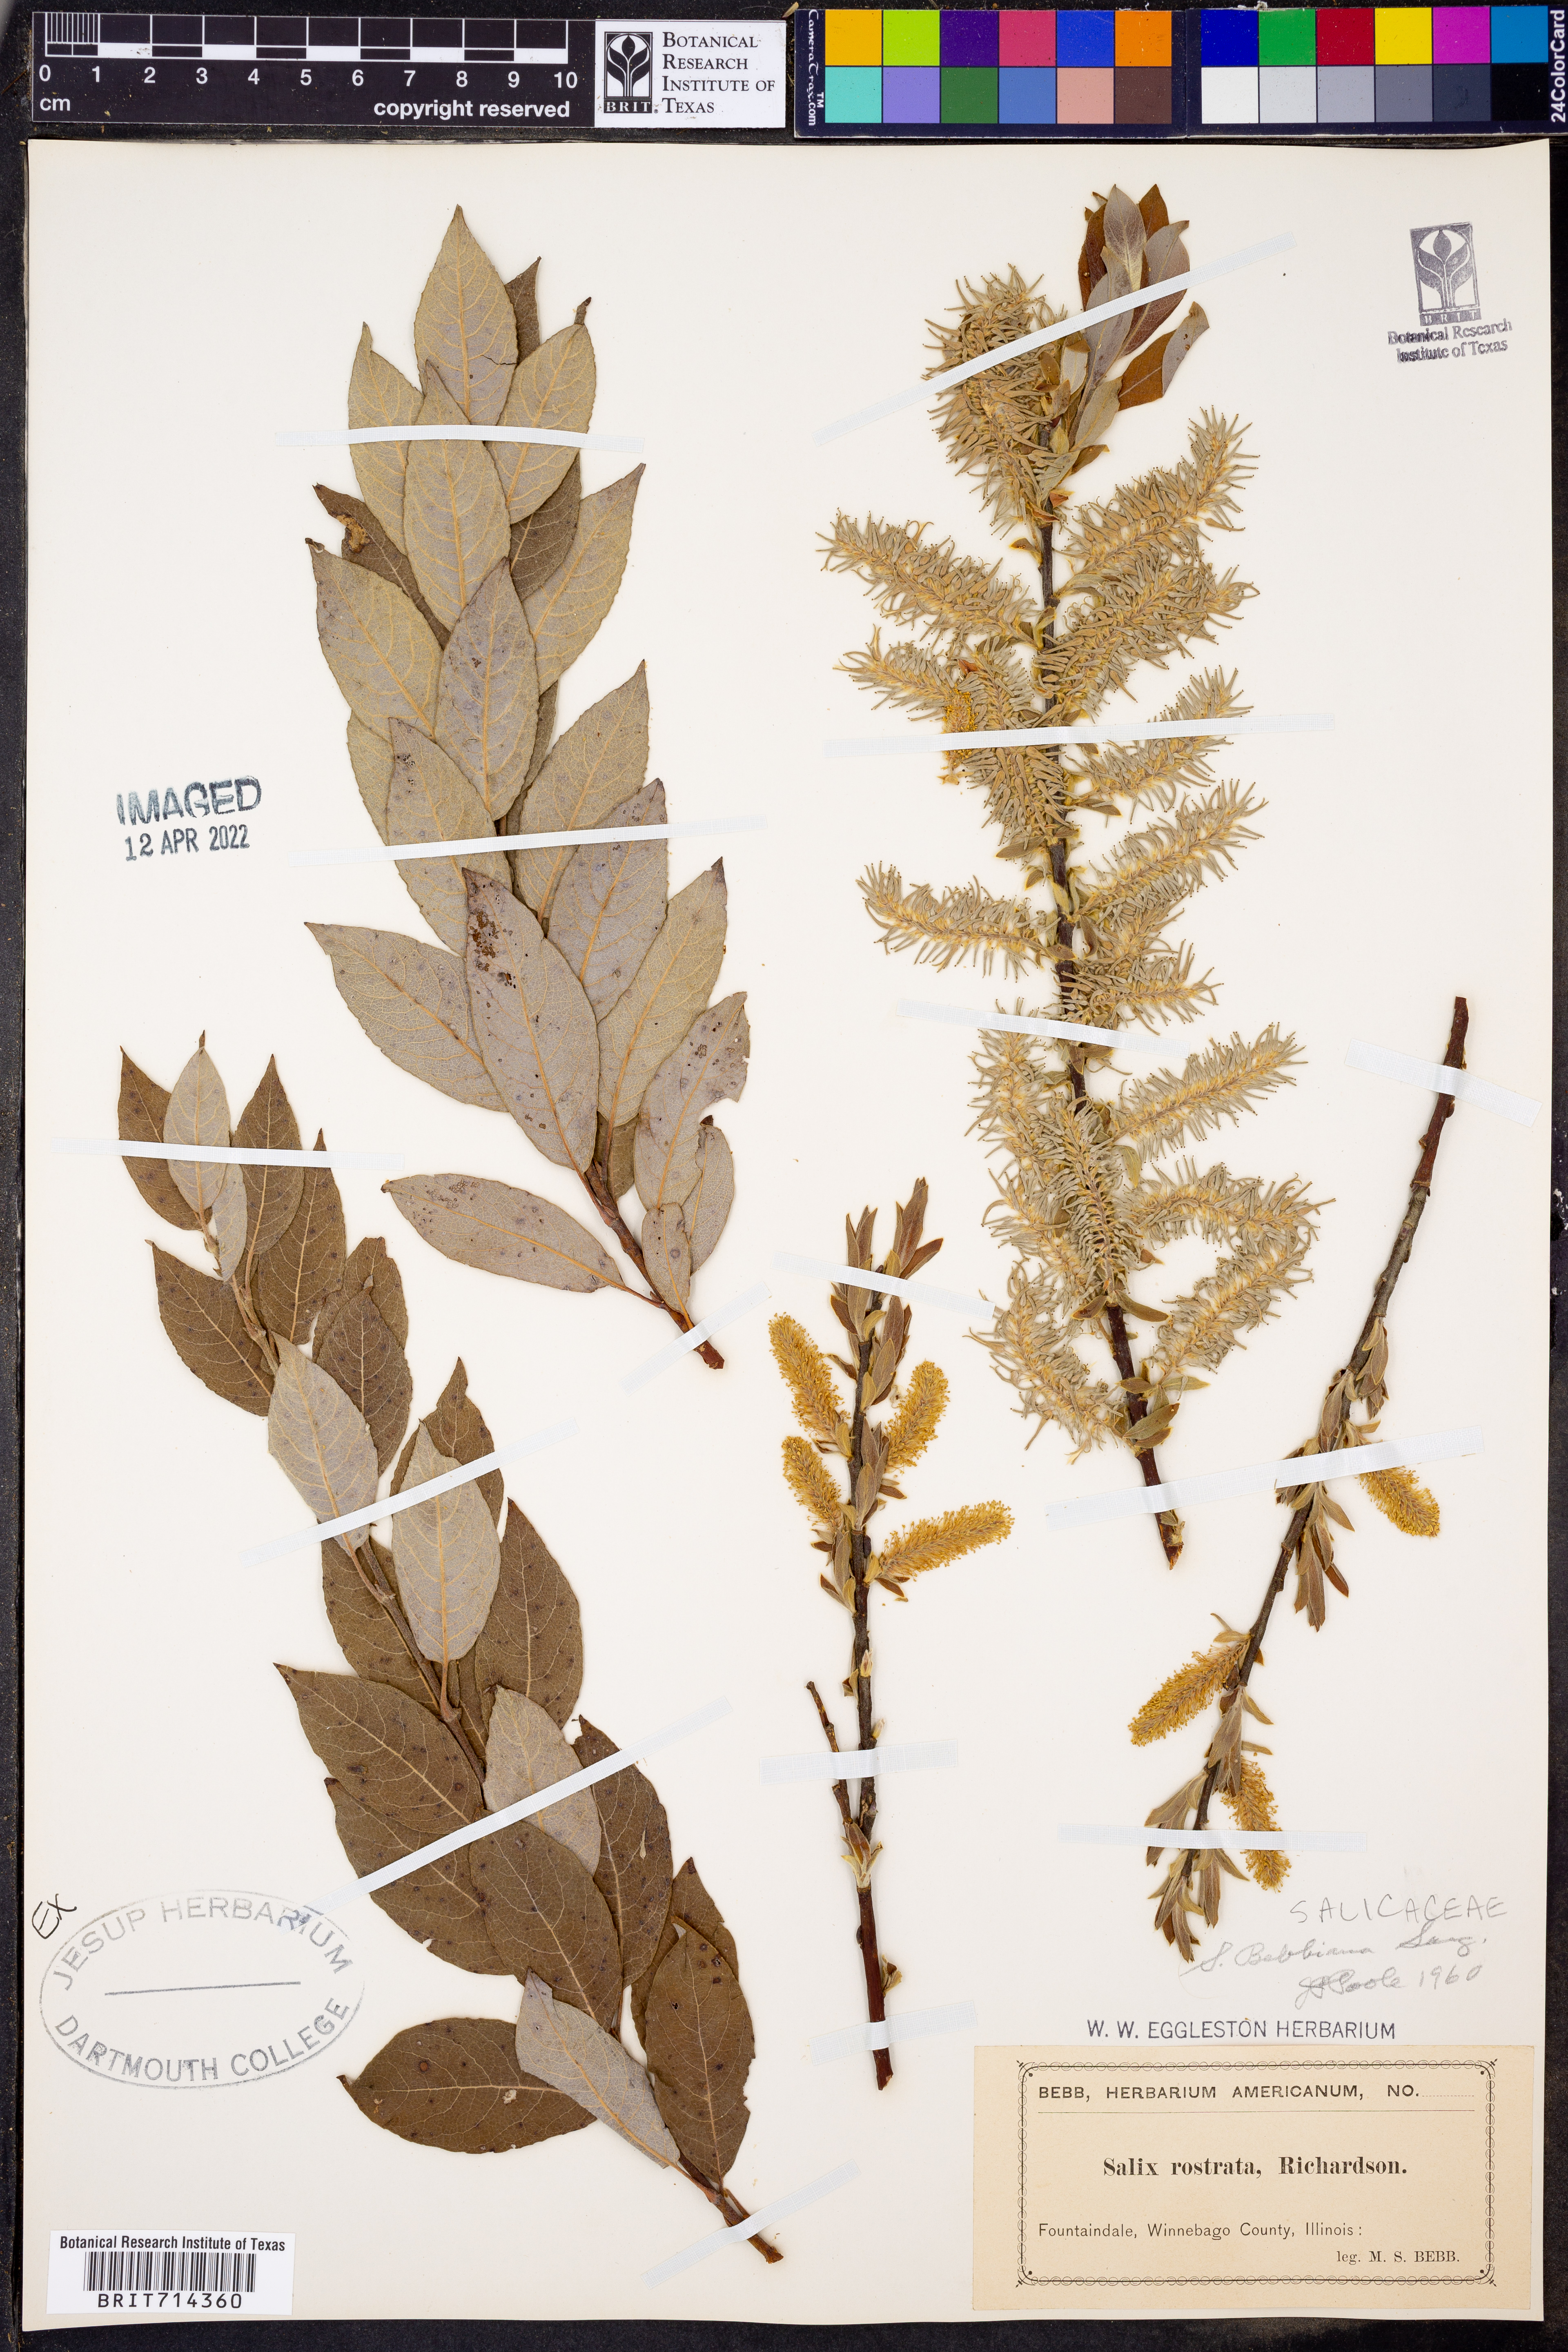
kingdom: Plantae
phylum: Tracheophyta
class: Magnoliopsida
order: Malpighiales
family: Salicaceae
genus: Salix
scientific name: Salix bebbiana
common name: Bebb's willow
